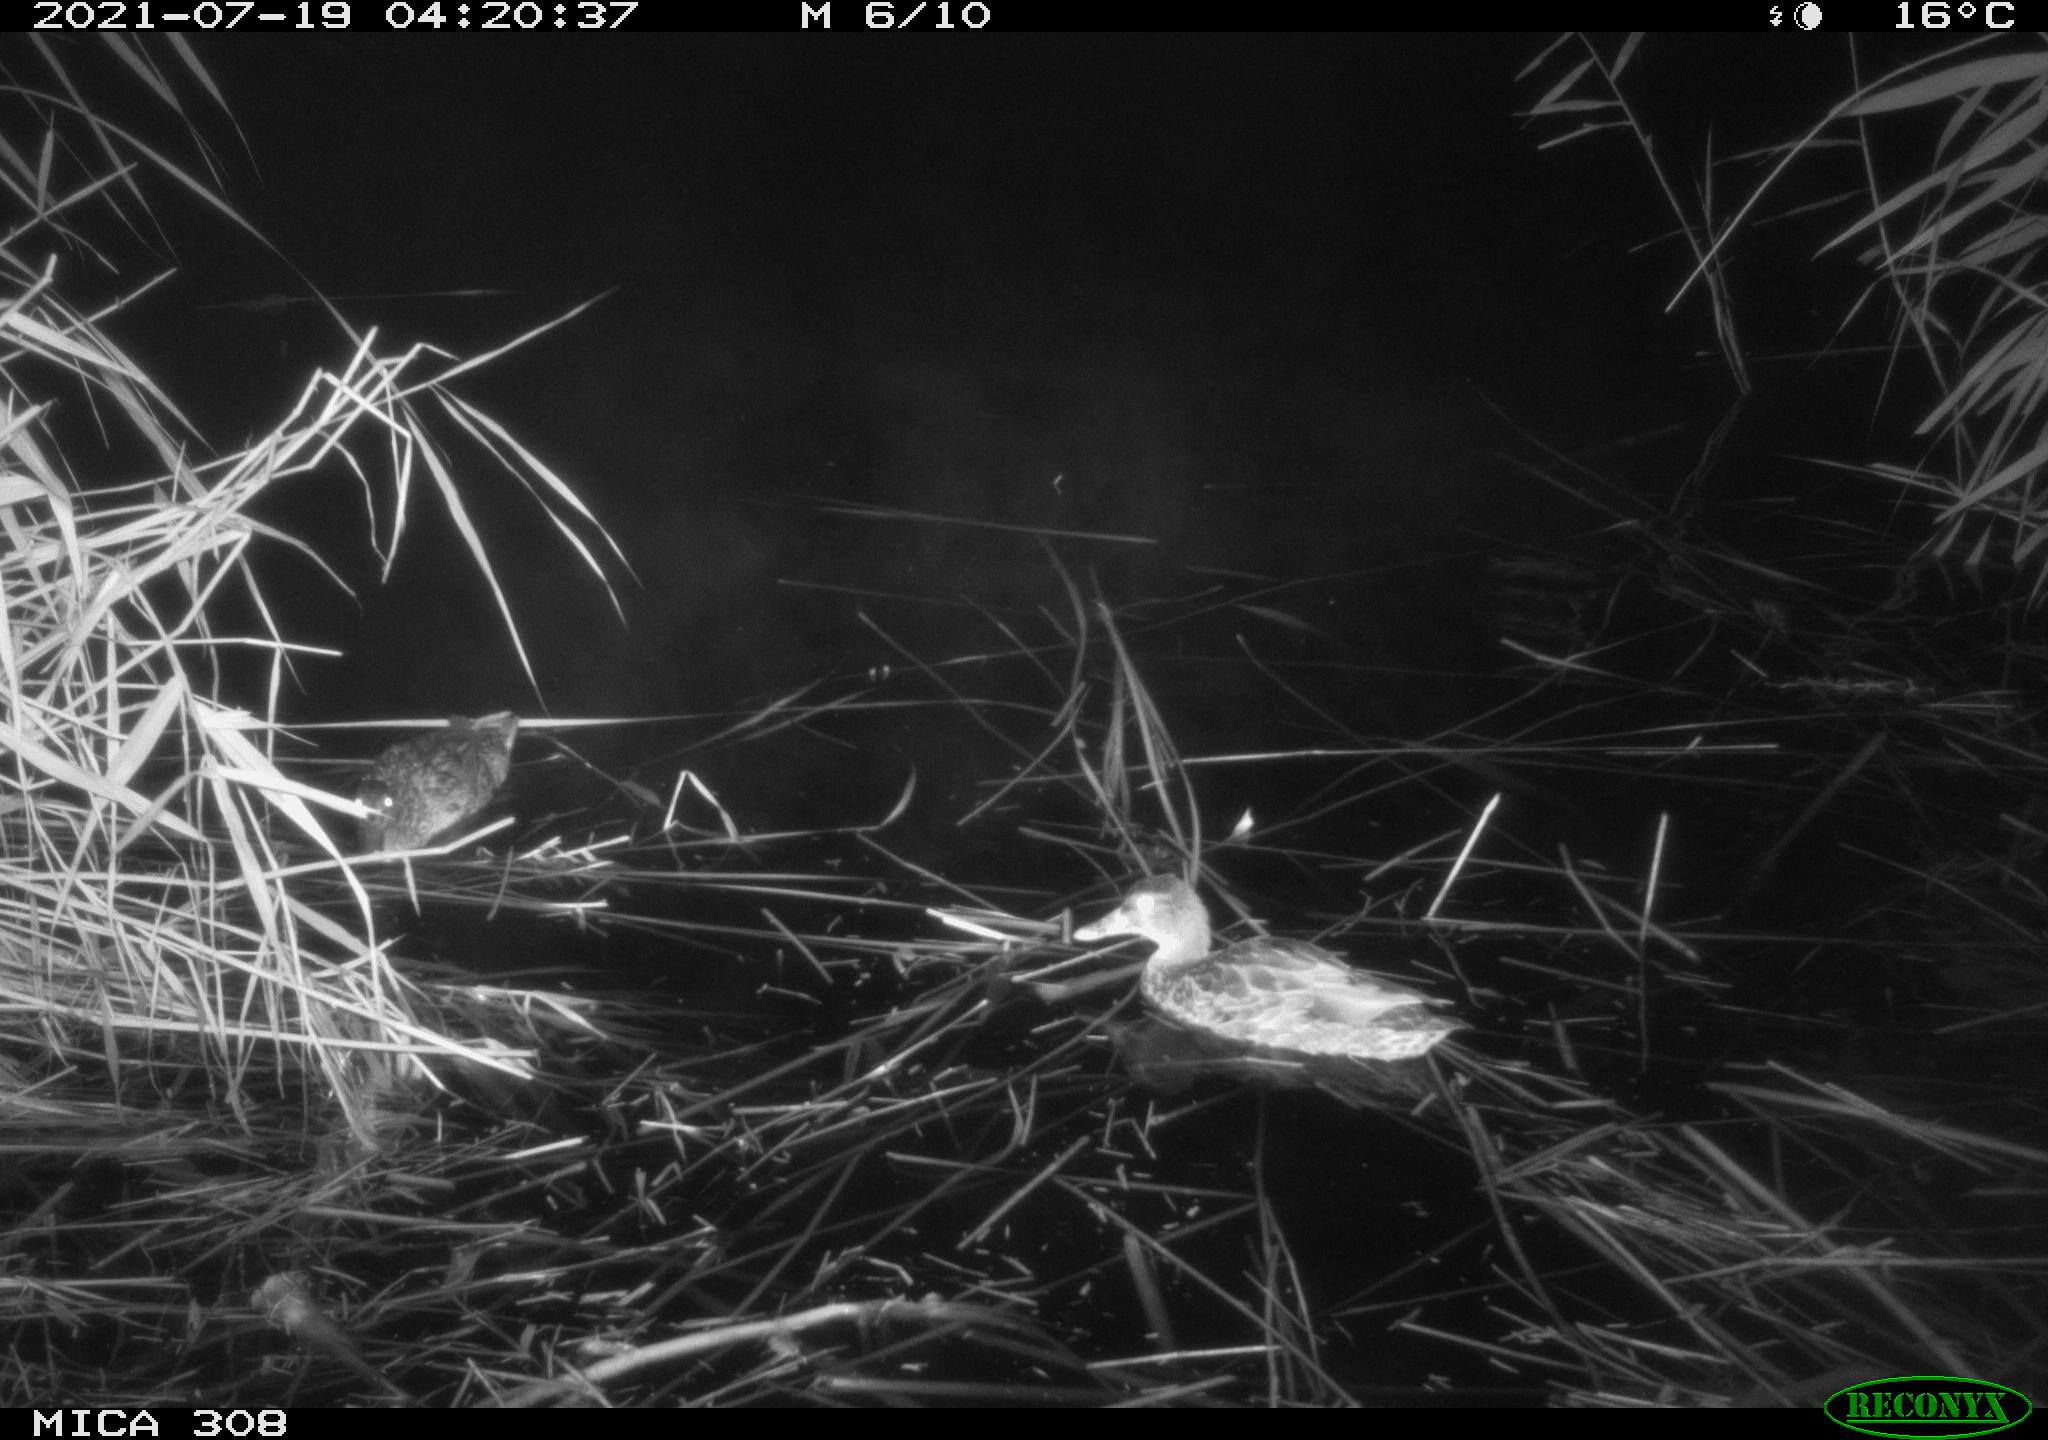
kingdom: Animalia
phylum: Chordata
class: Aves
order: Anseriformes
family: Anatidae
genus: Anas
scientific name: Anas platyrhynchos
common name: Mallard
